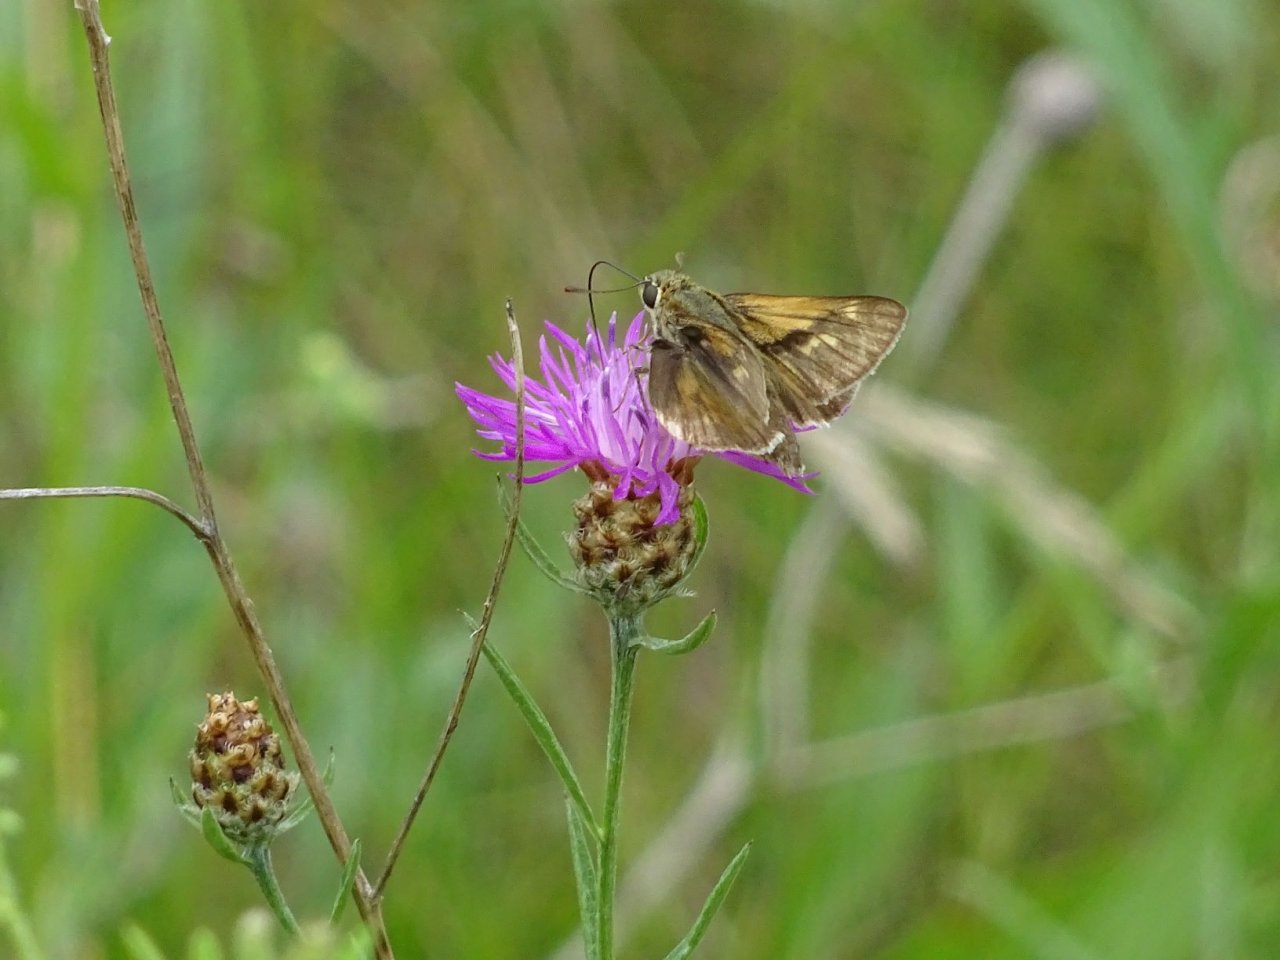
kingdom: Animalia
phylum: Arthropoda
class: Insecta
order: Lepidoptera
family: Hesperiidae
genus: Polites
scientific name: Polites
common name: Crossline Skipper
